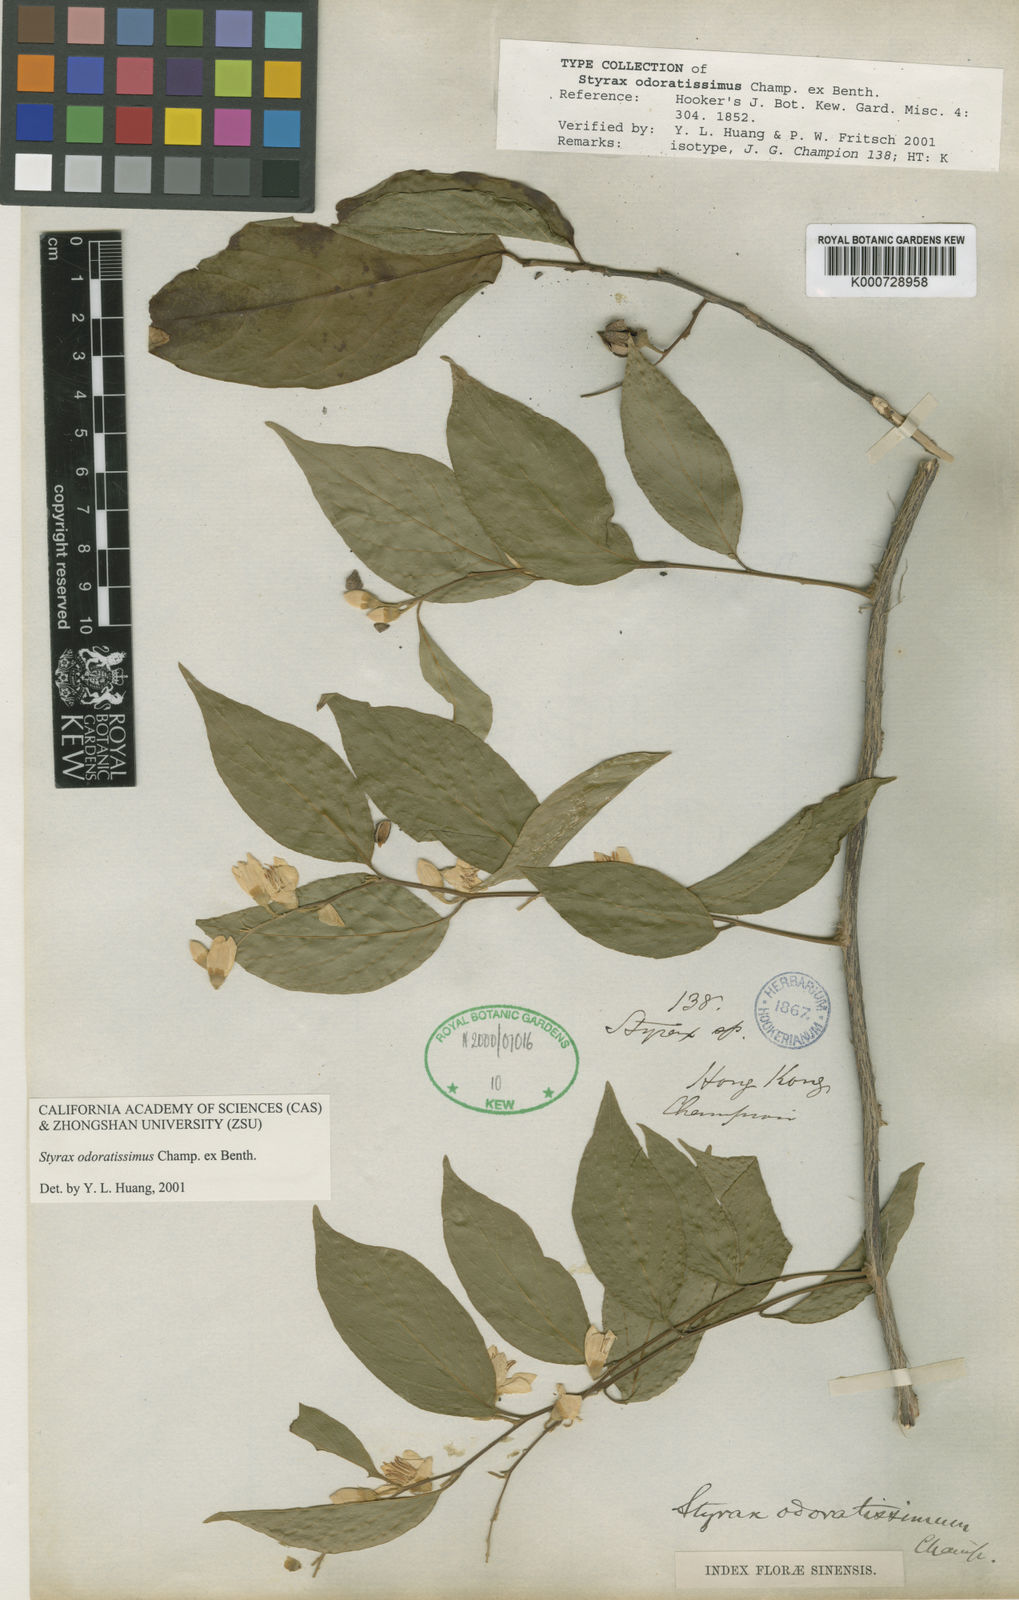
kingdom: Plantae
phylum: Tracheophyta
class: Magnoliopsida
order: Ericales
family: Styracaceae
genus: Styrax
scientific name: Styrax odoratissimus
